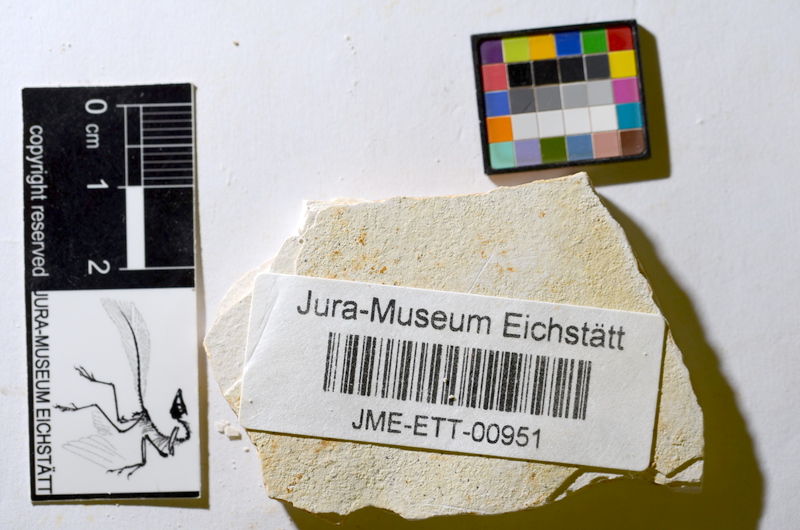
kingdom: Animalia
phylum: Chordata
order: Salmoniformes
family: Orthogonikleithridae
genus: Orthogonikleithrus
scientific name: Orthogonikleithrus hoelli
